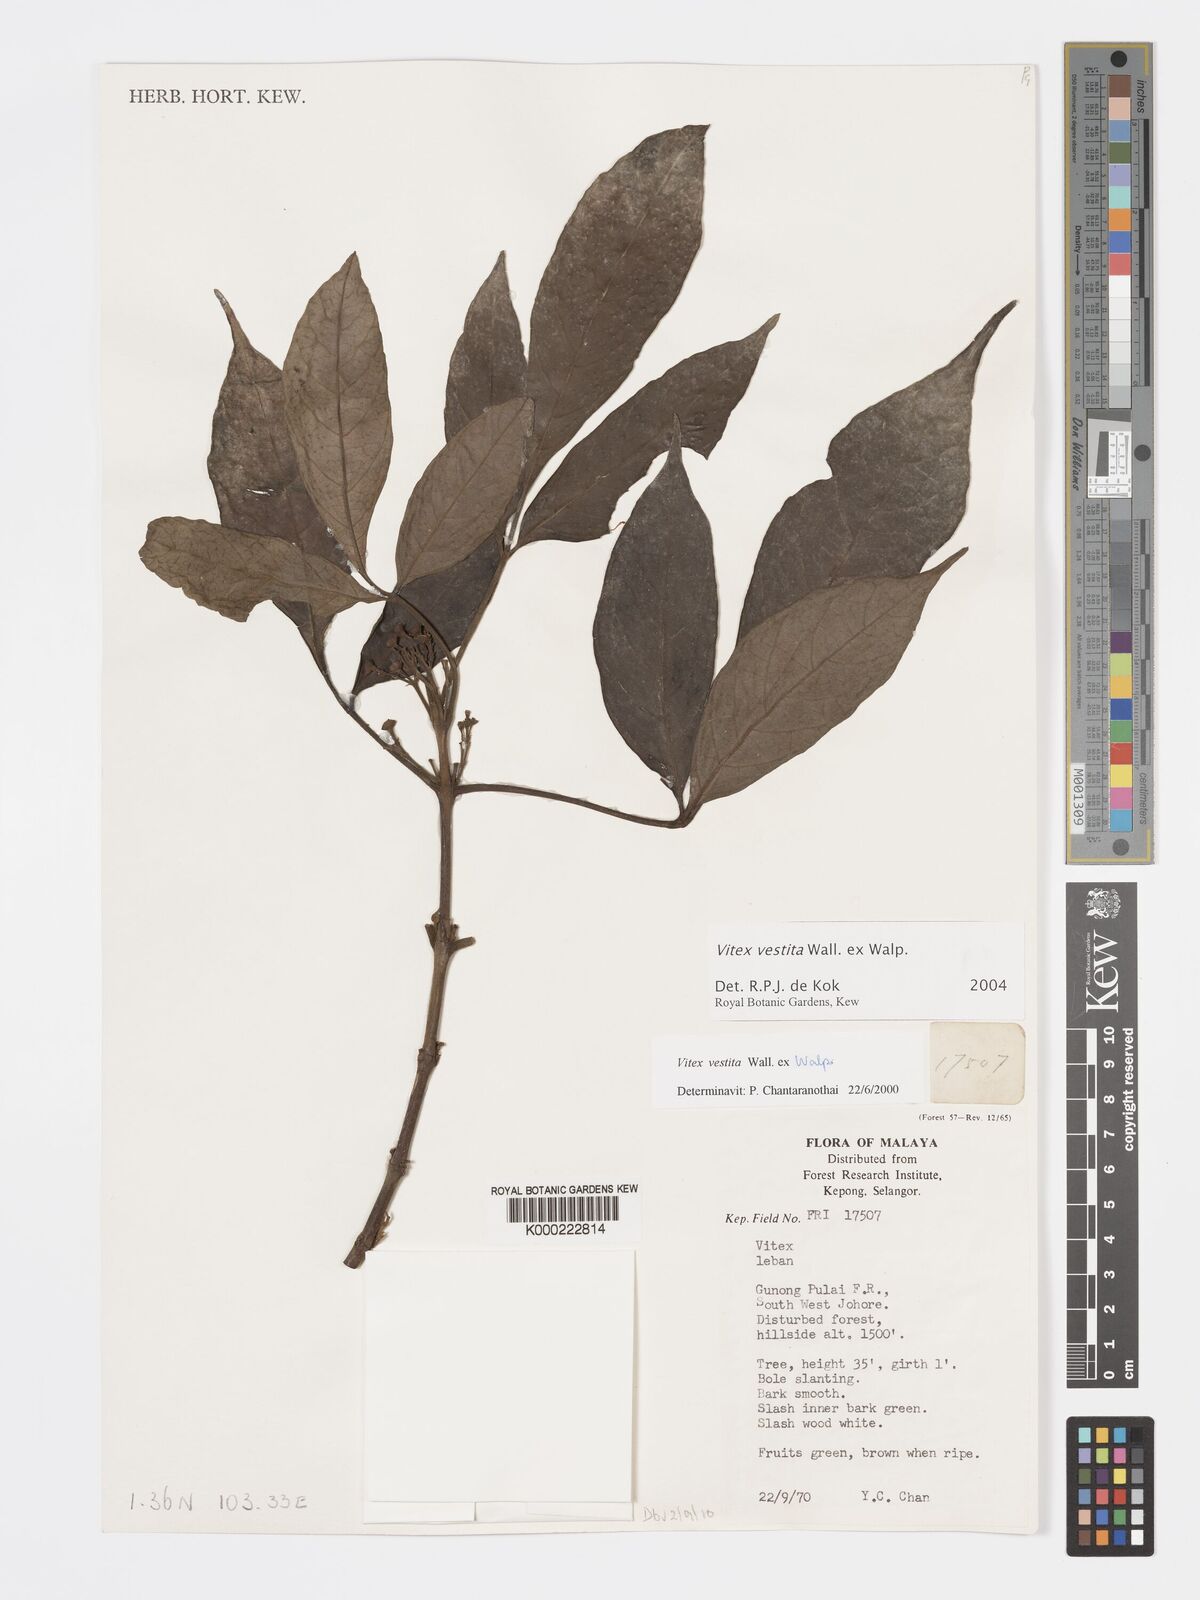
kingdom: Plantae
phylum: Tracheophyta
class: Magnoliopsida
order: Lamiales
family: Lamiaceae
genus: Vitex
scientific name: Vitex vestita
